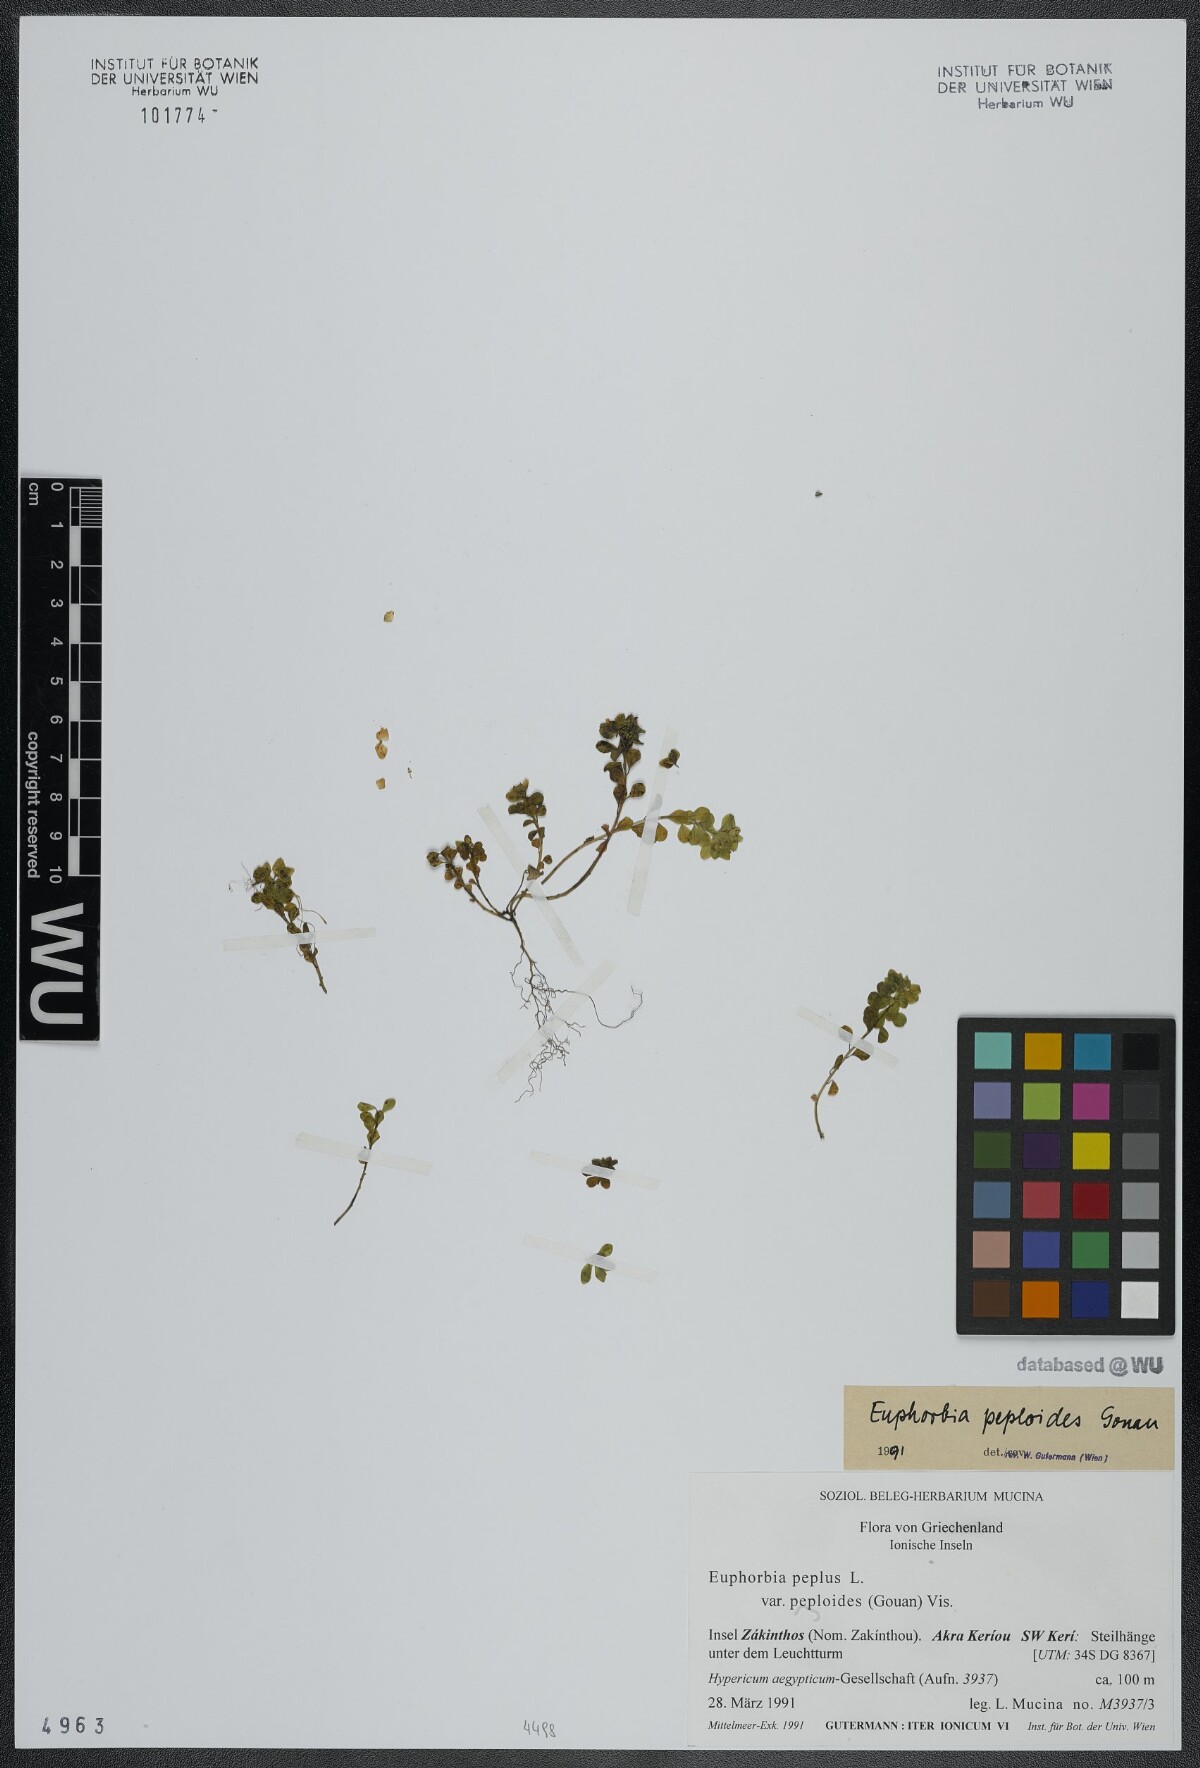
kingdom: Plantae
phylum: Tracheophyta
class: Magnoliopsida
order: Malpighiales
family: Euphorbiaceae
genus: Euphorbia
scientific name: Euphorbia peplus
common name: Petty spurge
